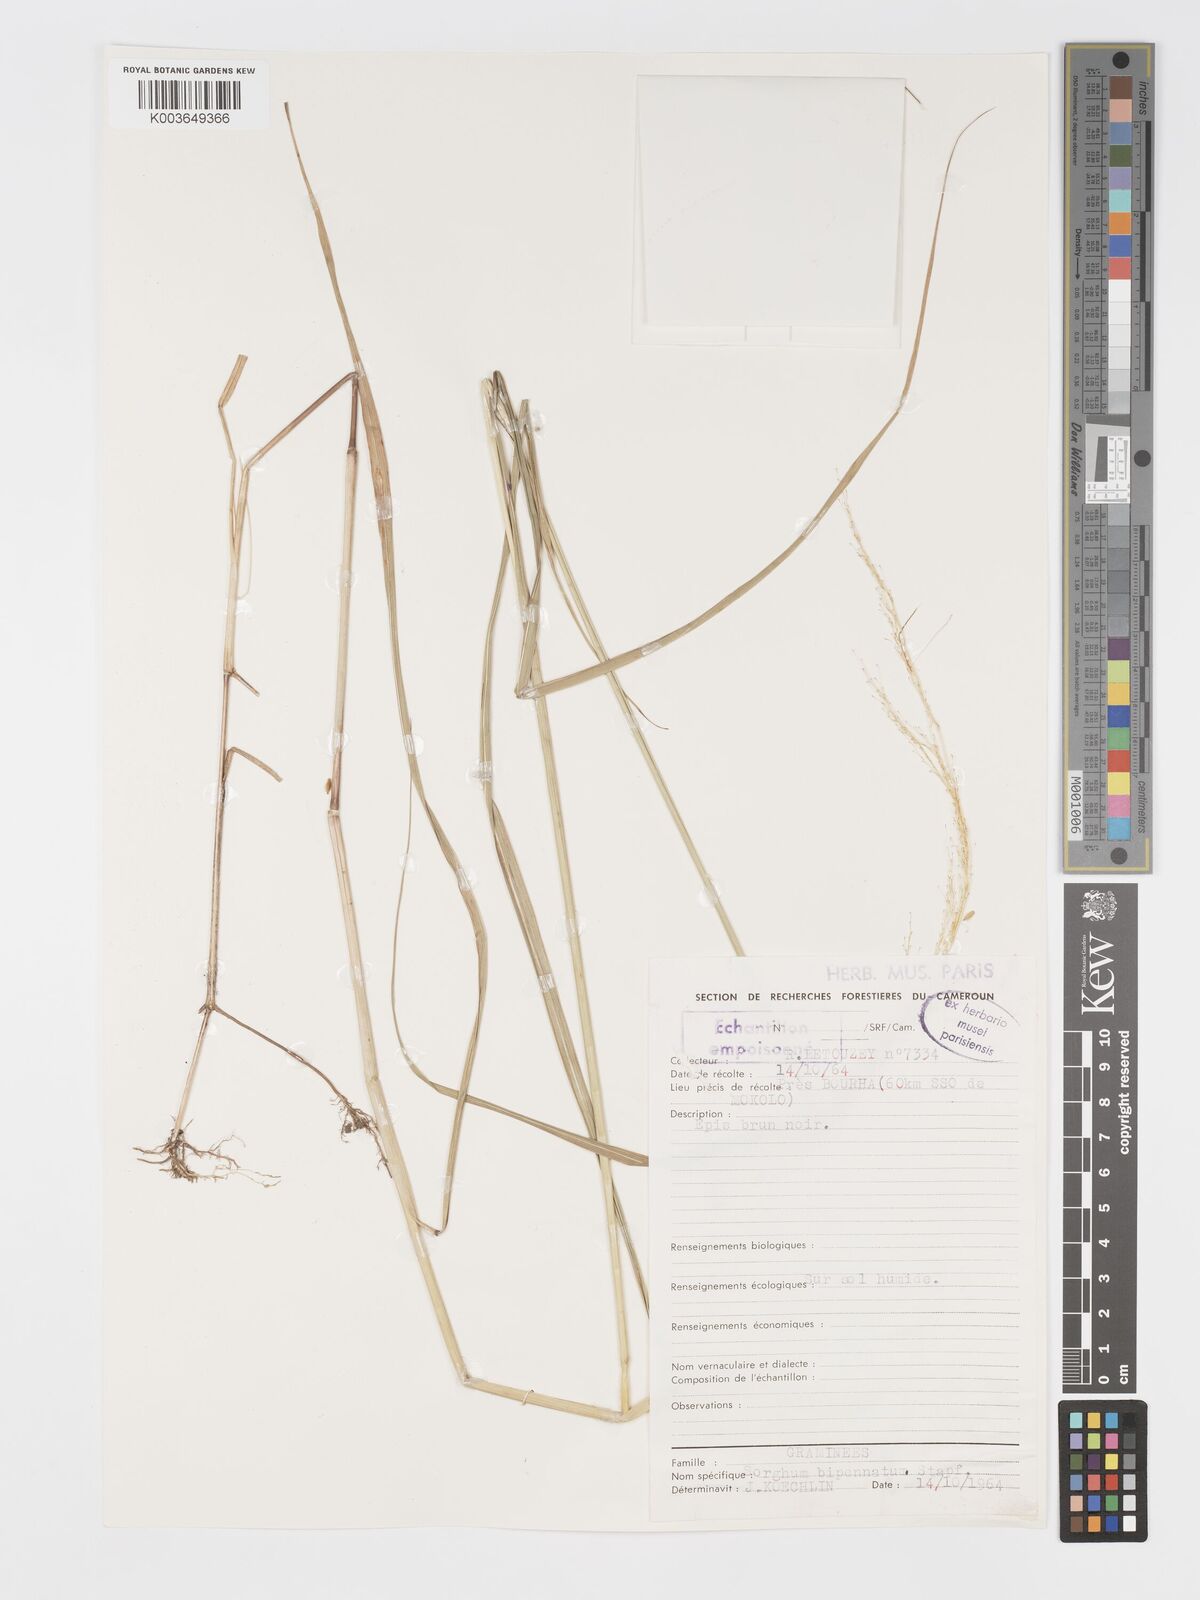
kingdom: Plantae
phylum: Tracheophyta
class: Liliopsida
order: Poales
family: Poaceae
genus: Sorghastrum
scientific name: Sorghastrum incompletum
